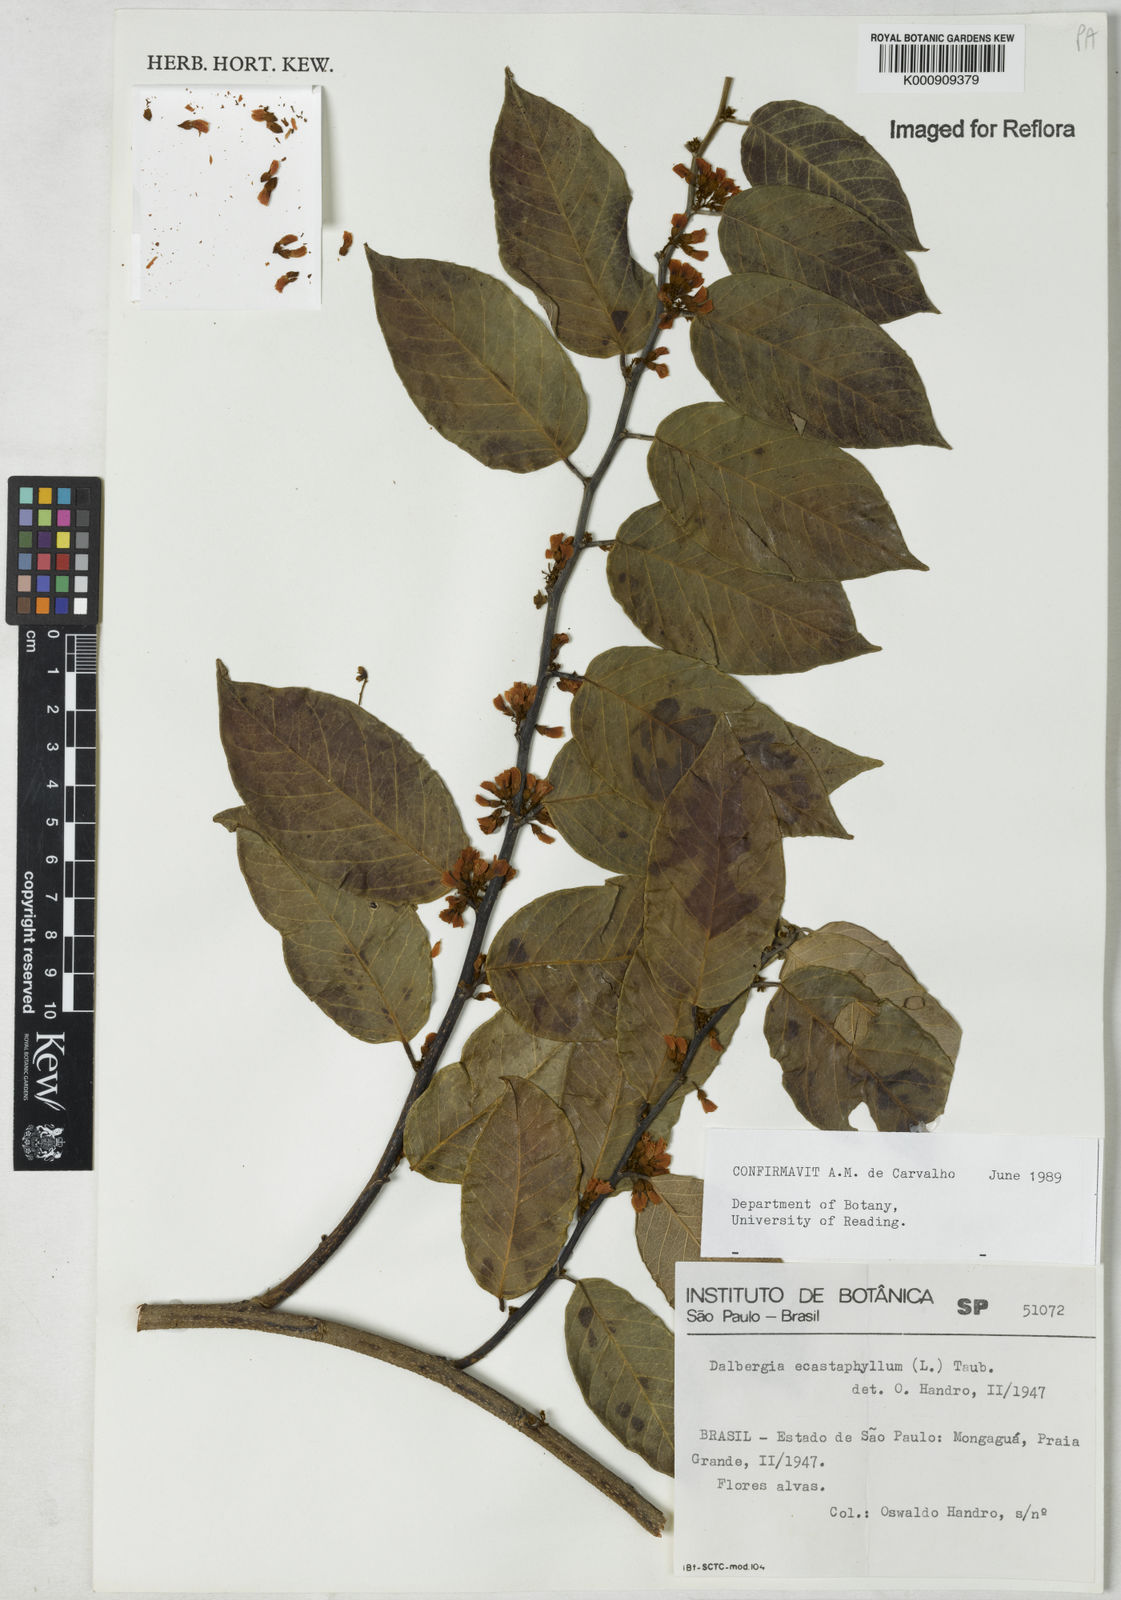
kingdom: Plantae
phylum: Tracheophyta
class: Magnoliopsida
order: Fabales
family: Fabaceae
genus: Dalbergia
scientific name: Dalbergia ecastaphyllum
